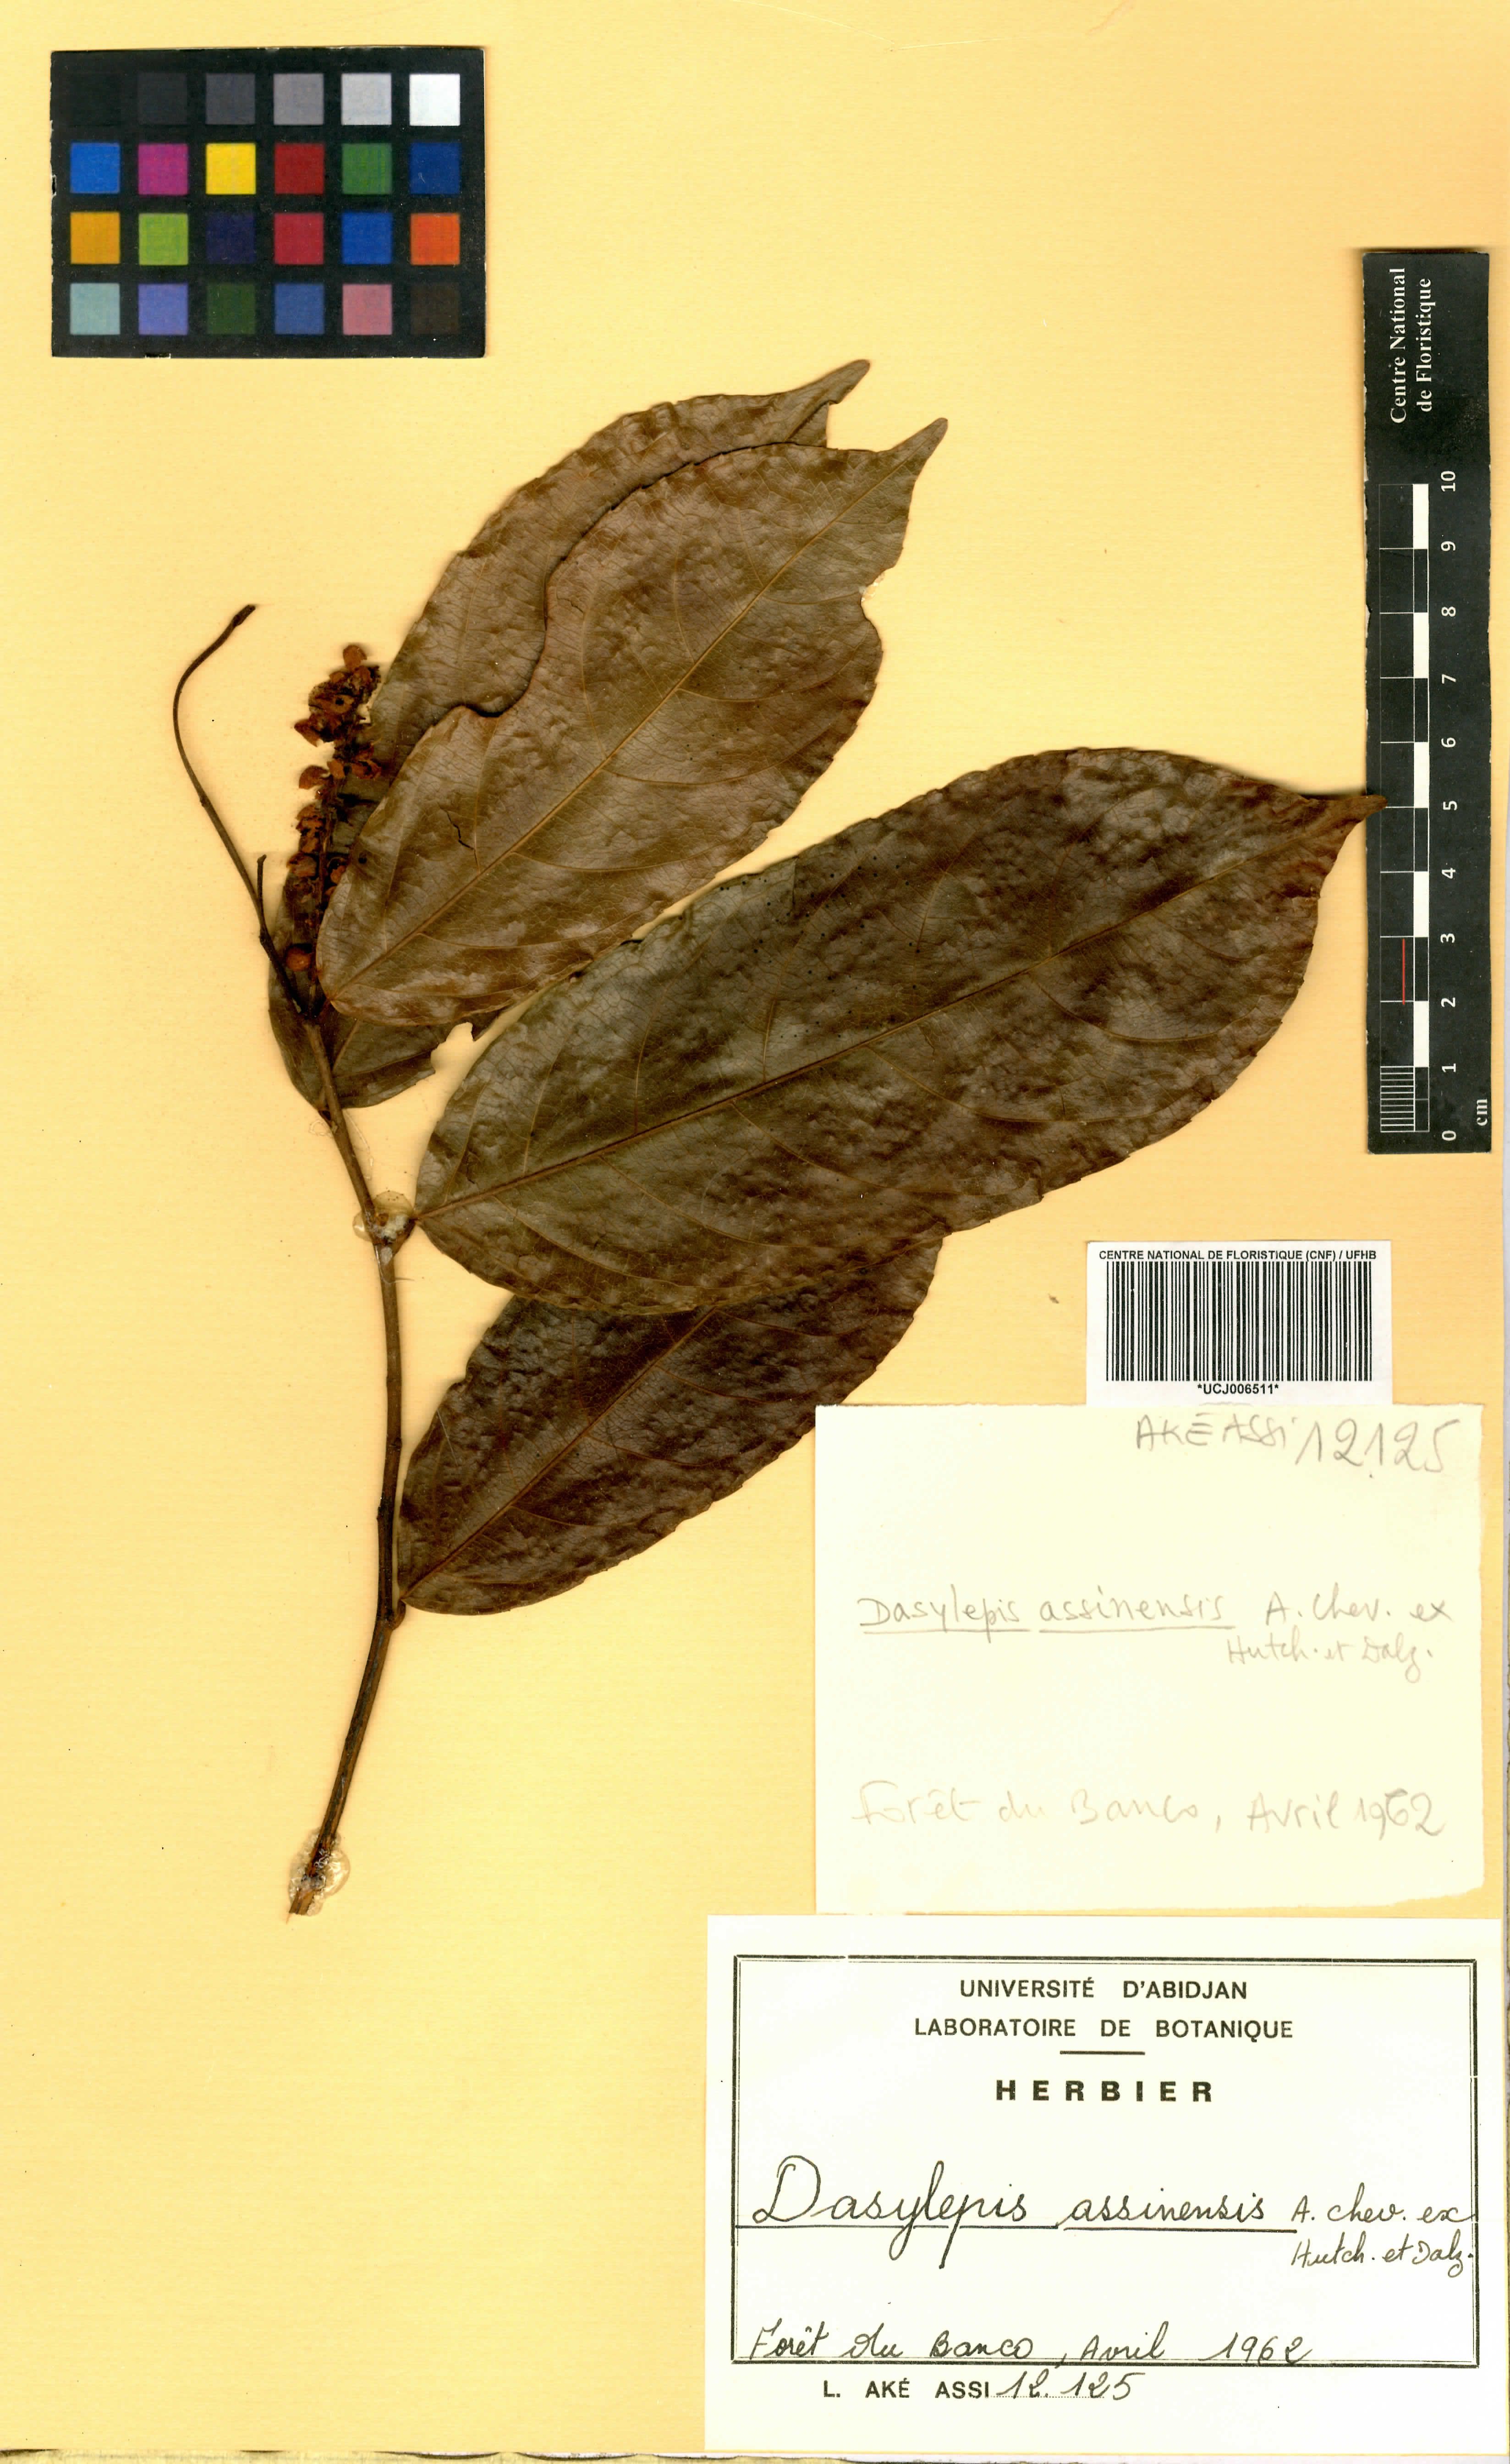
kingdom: Plantae
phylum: Tracheophyta
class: Magnoliopsida
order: Malpighiales
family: Achariaceae
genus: Dasylepis
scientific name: Dasylepis racemosa
